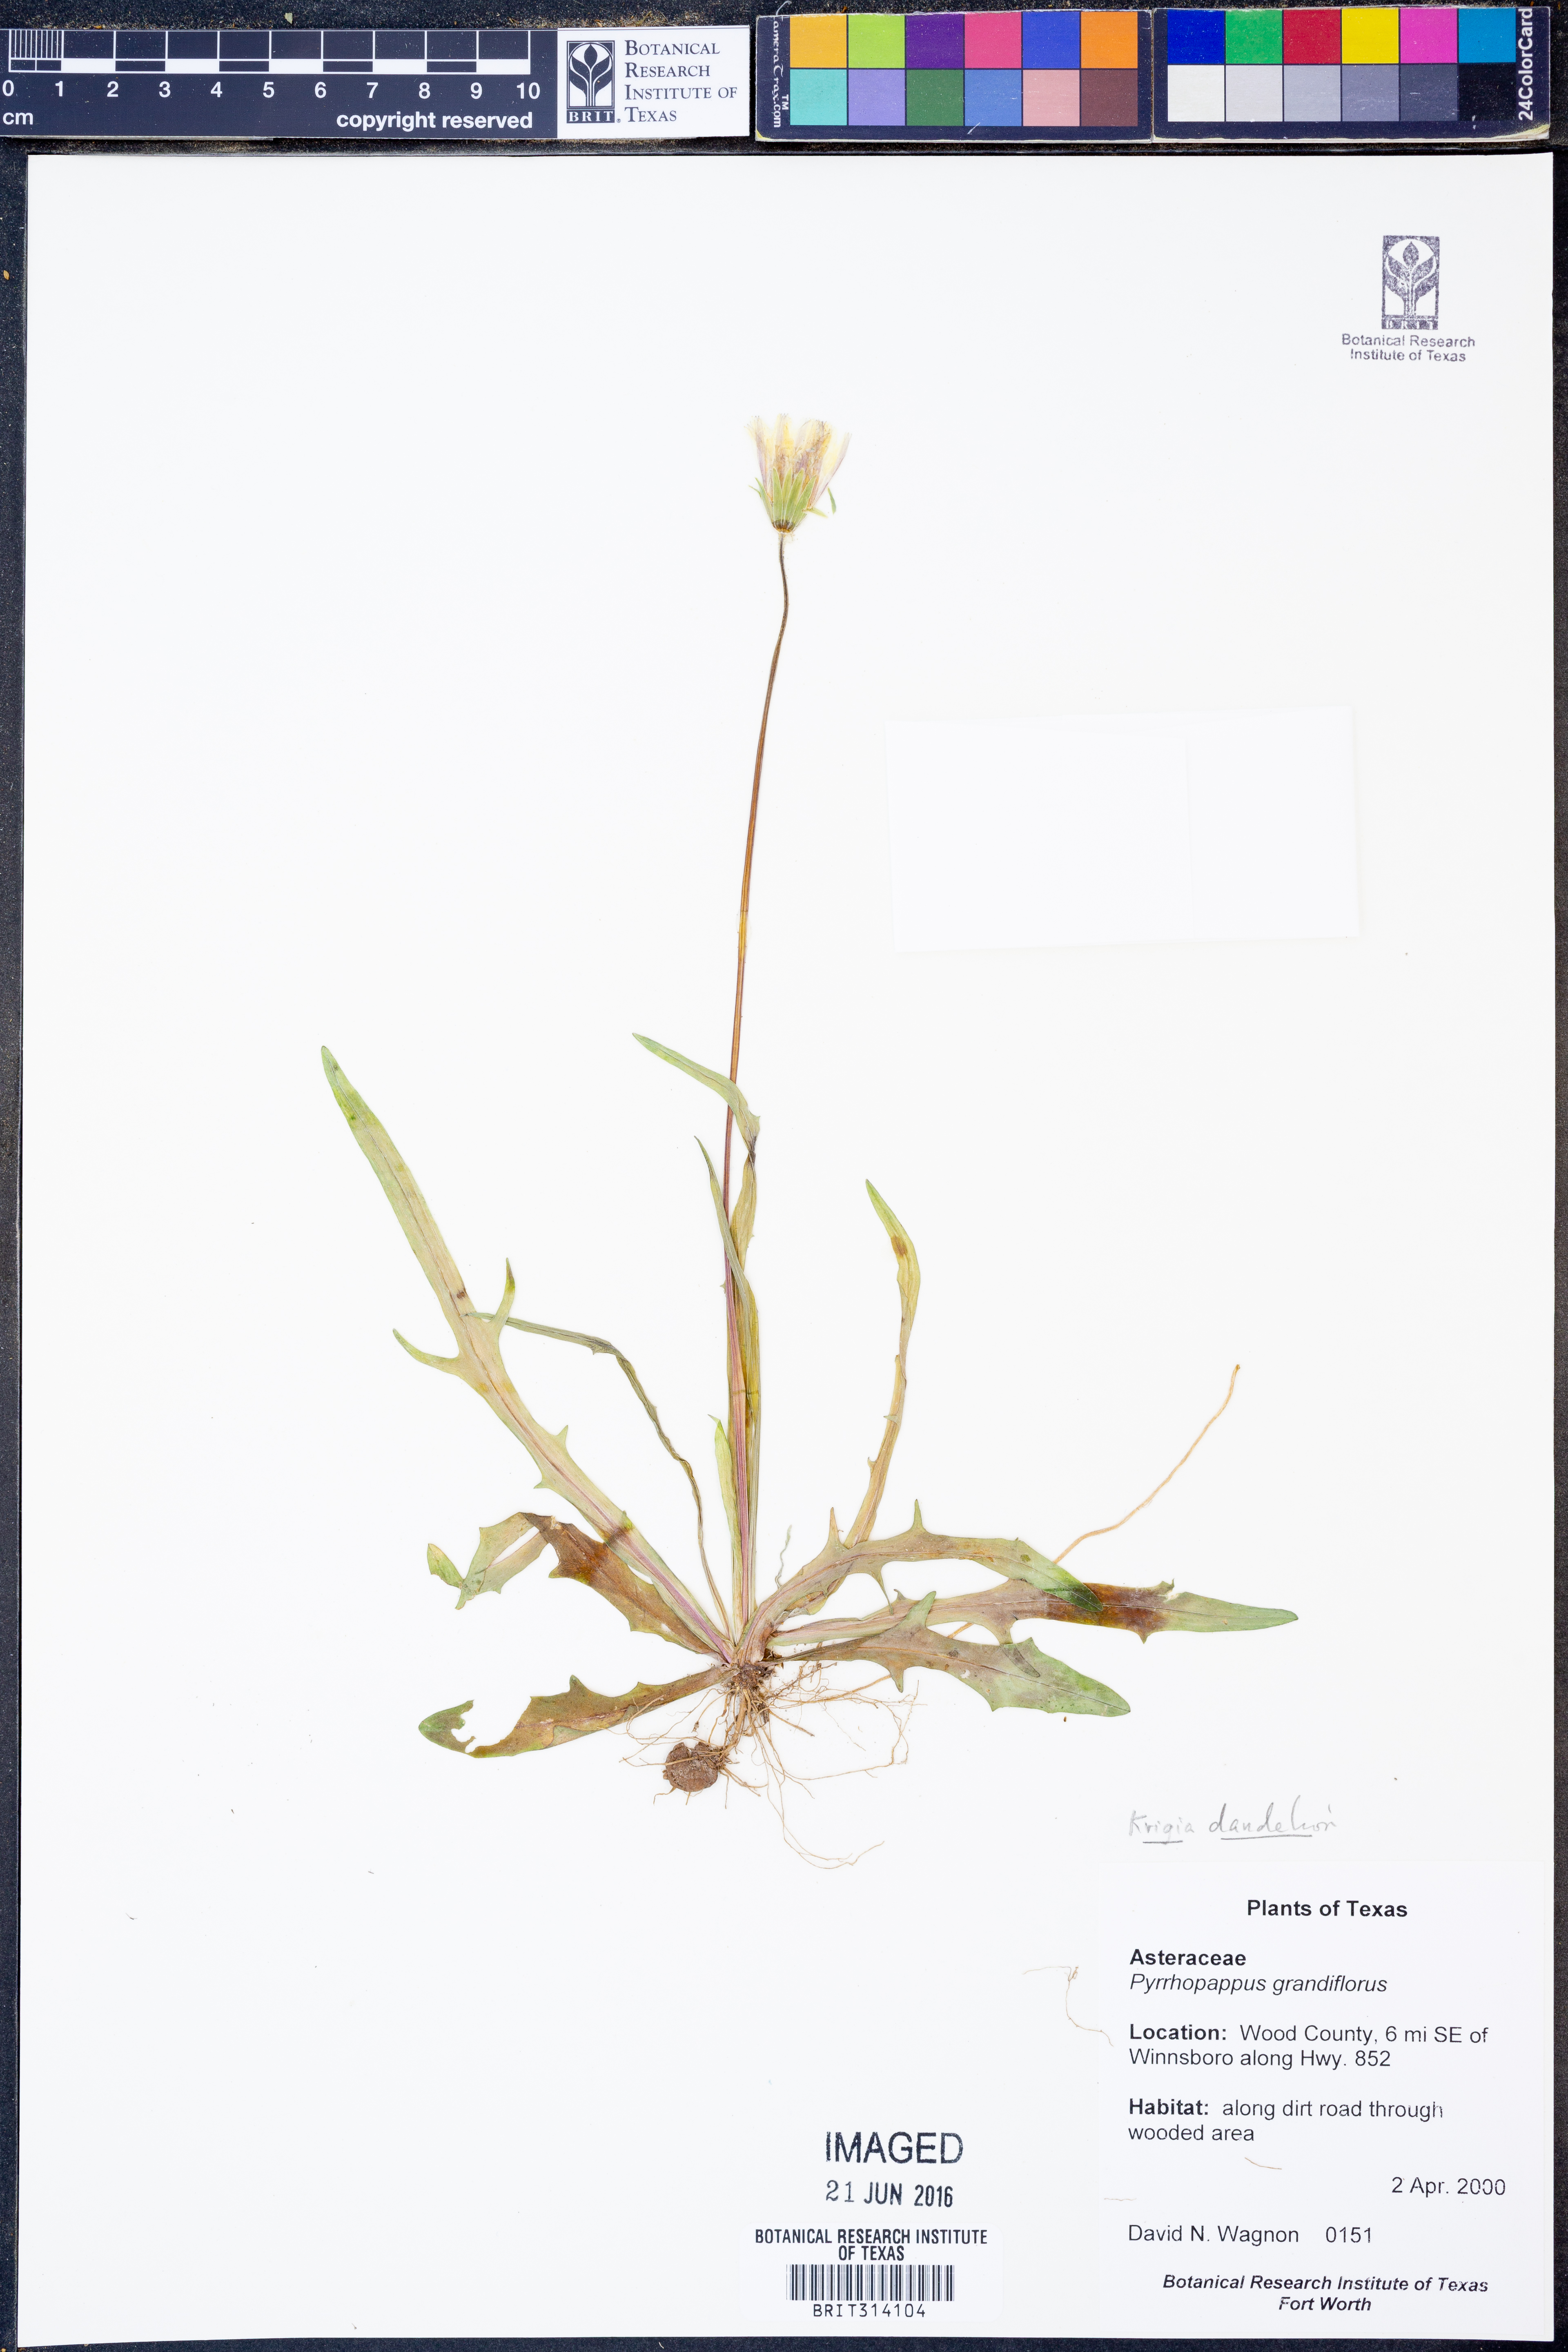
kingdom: Plantae
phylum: Tracheophyta
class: Magnoliopsida
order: Asterales
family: Asteraceae
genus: Krigia
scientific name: Krigia dandelion
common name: Colonial dwarf-dandelion
